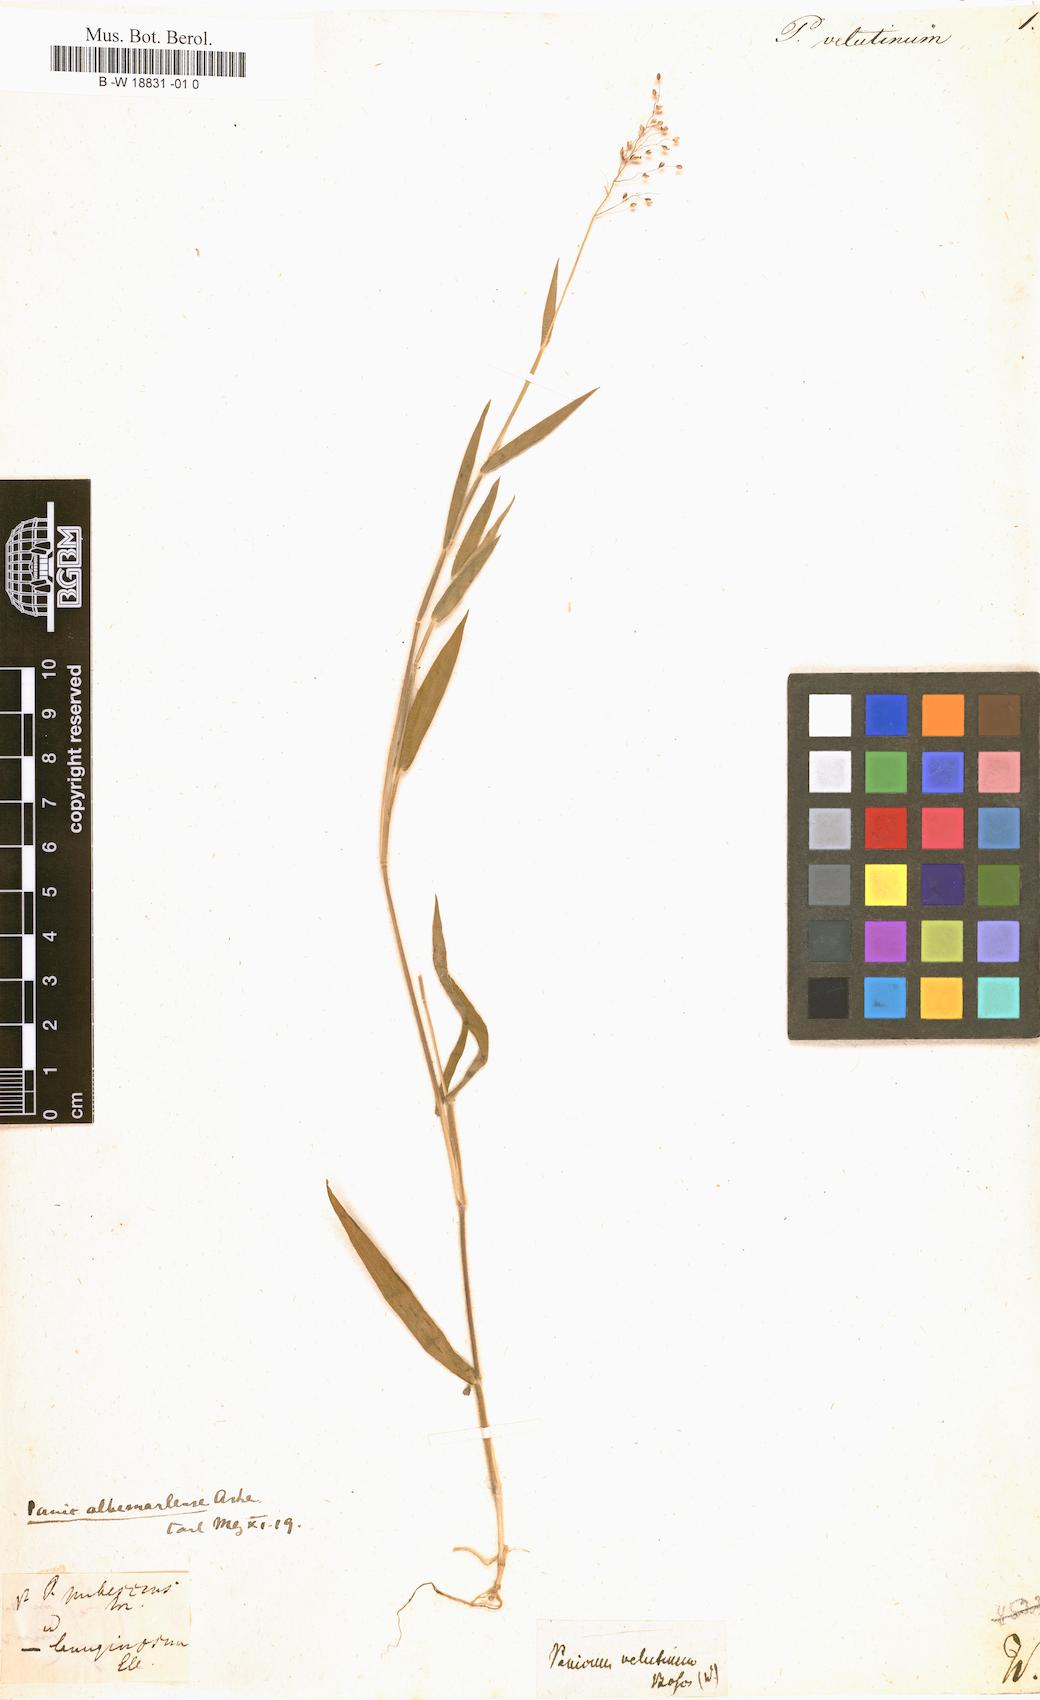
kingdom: Plantae
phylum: Tracheophyta
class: Liliopsida
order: Poales
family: Poaceae
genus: Oplismenus
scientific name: Oplismenus hirtellus
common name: Basketgrass
